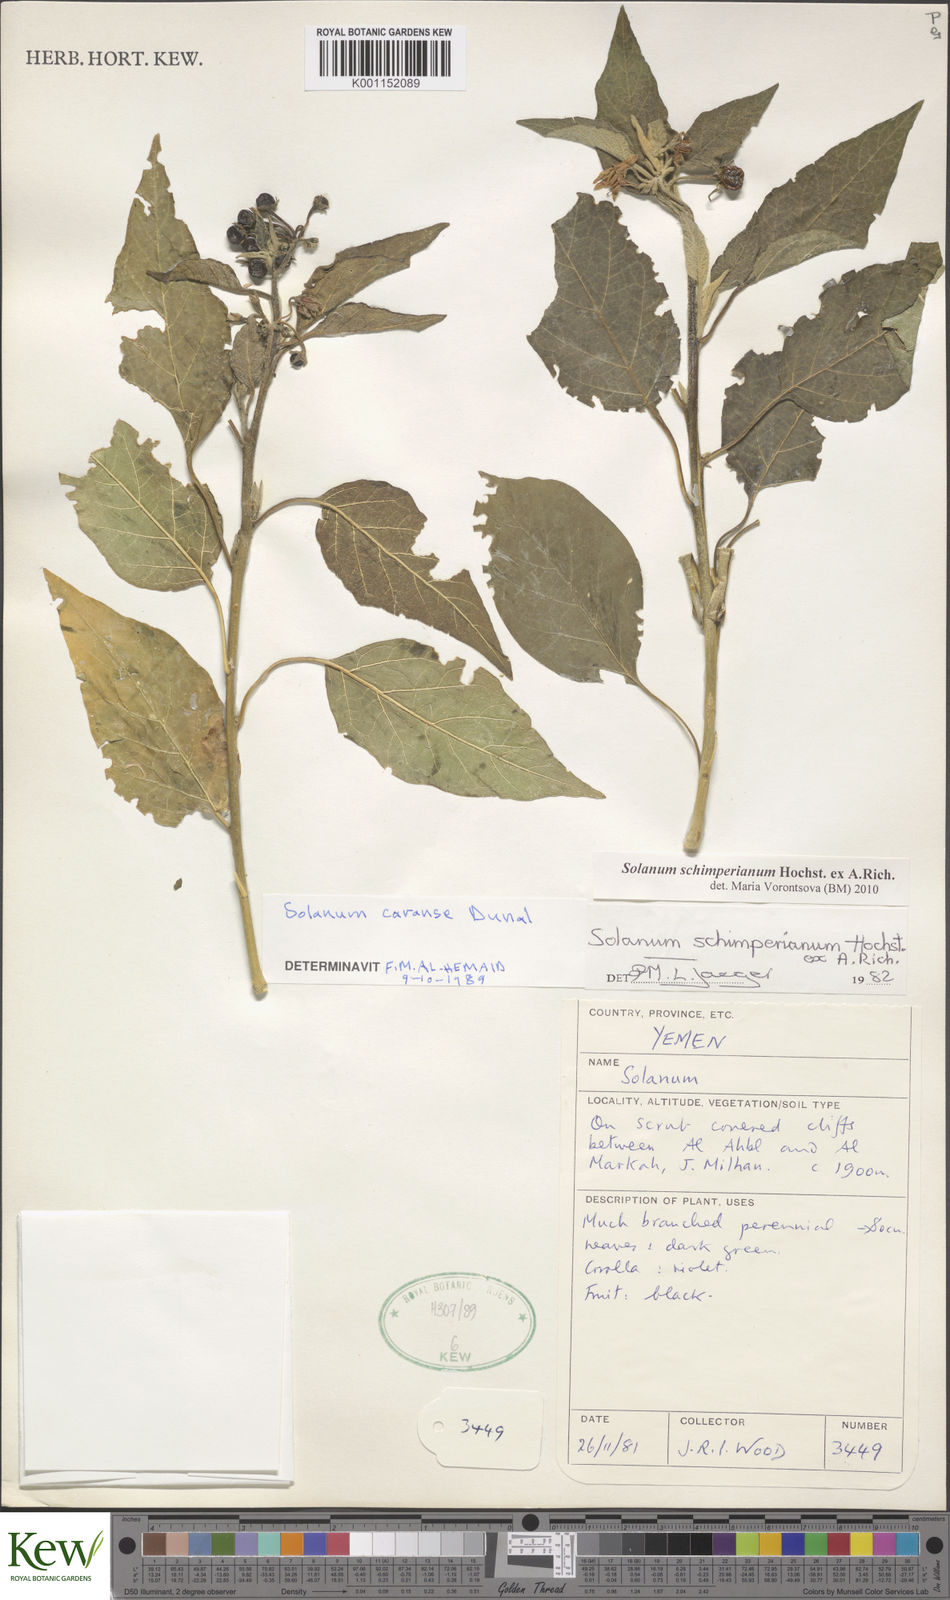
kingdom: Plantae
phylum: Tracheophyta
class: Magnoliopsida
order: Solanales
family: Solanaceae
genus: Solanum
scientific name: Solanum schimperianum
